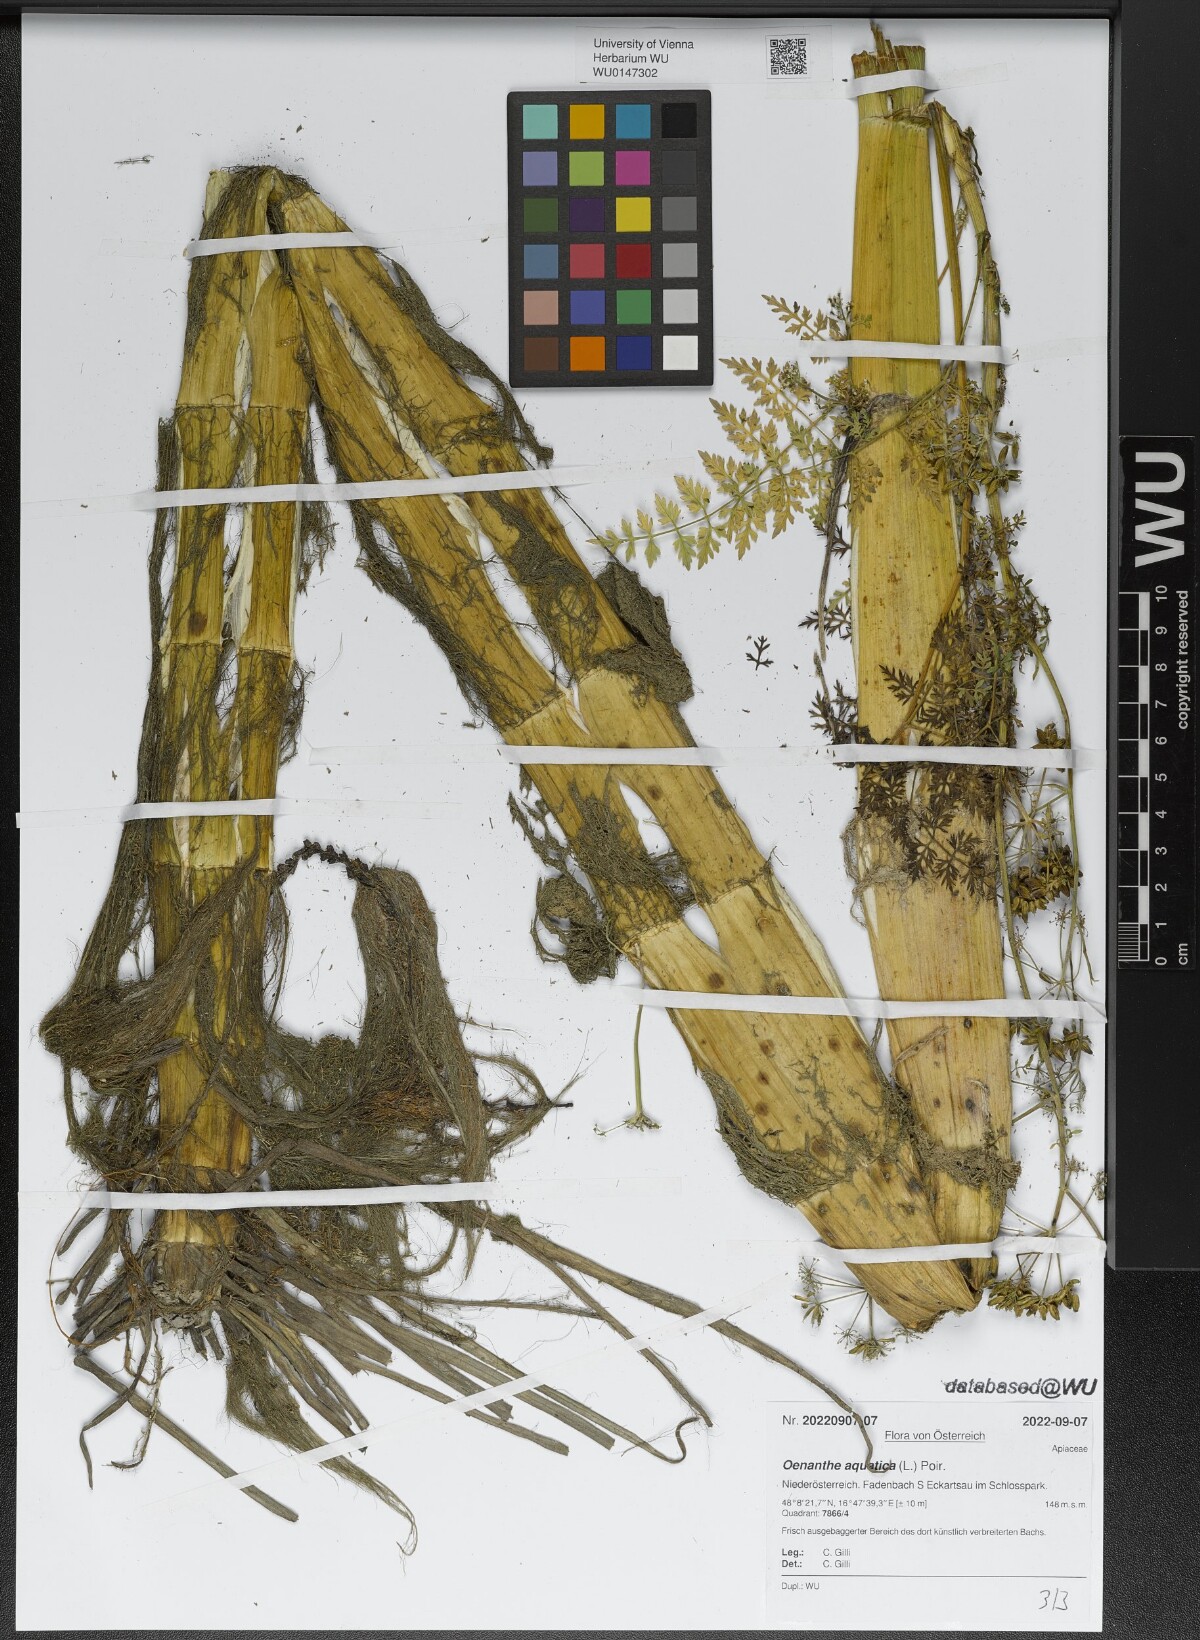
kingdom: Plantae
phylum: Tracheophyta
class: Magnoliopsida
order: Apiales
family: Apiaceae
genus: Oenanthe
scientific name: Oenanthe aquatica
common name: Fine-leaved water-dropwort
